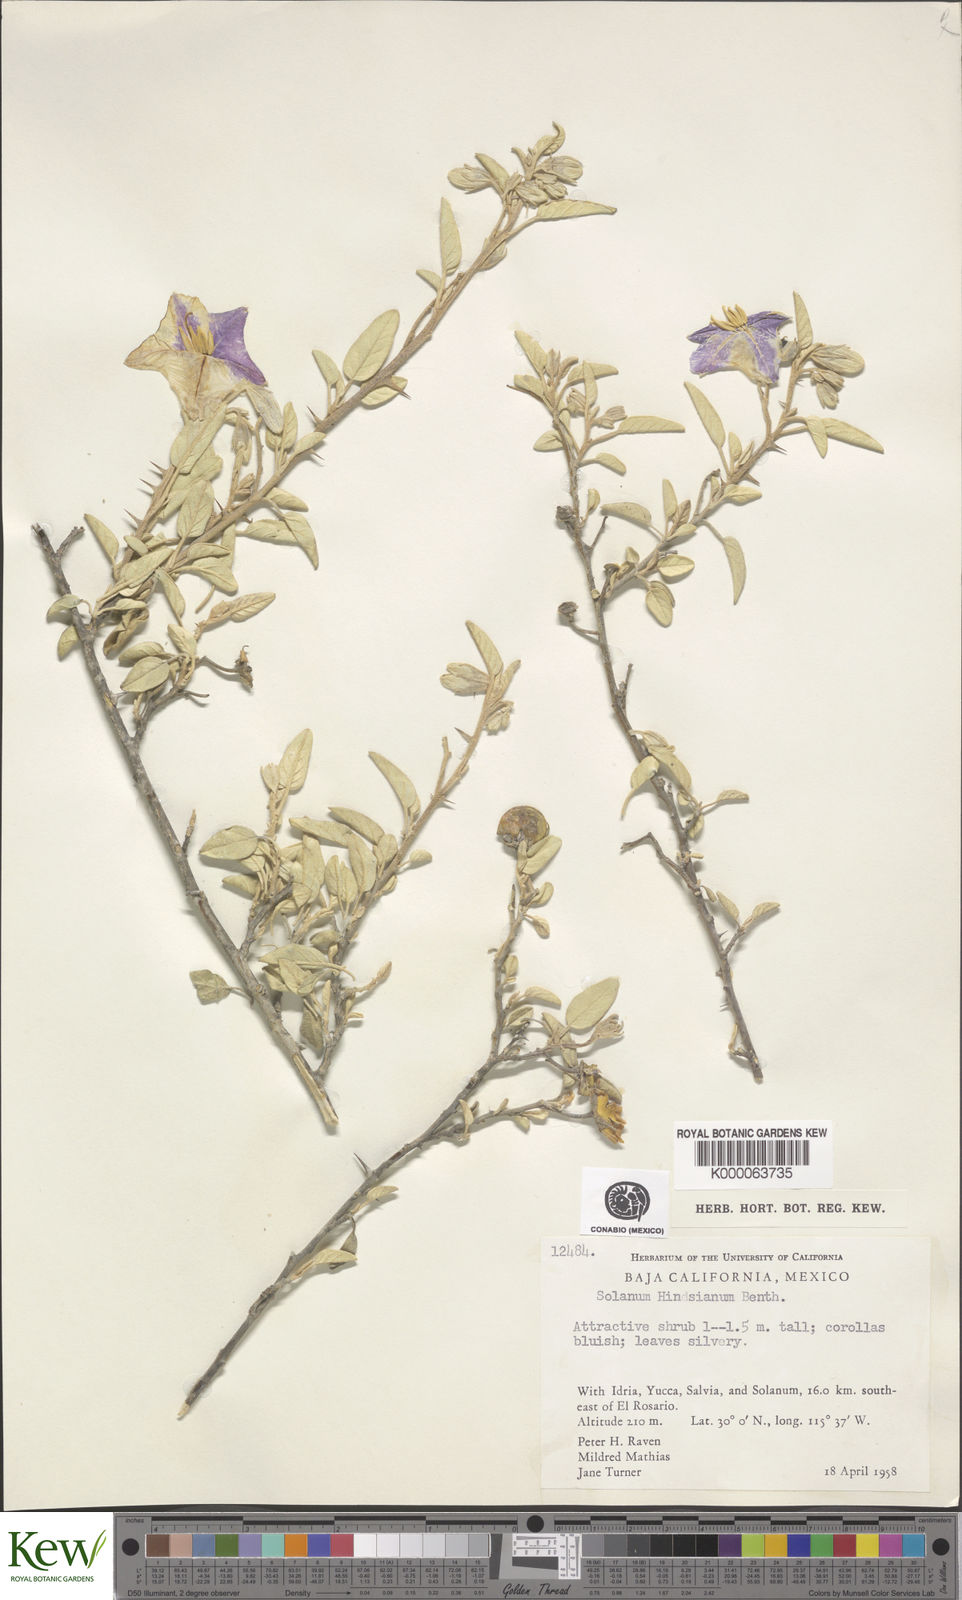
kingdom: Plantae
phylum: Tracheophyta
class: Magnoliopsida
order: Solanales
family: Solanaceae
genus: Solanum
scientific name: Solanum hindsianum
